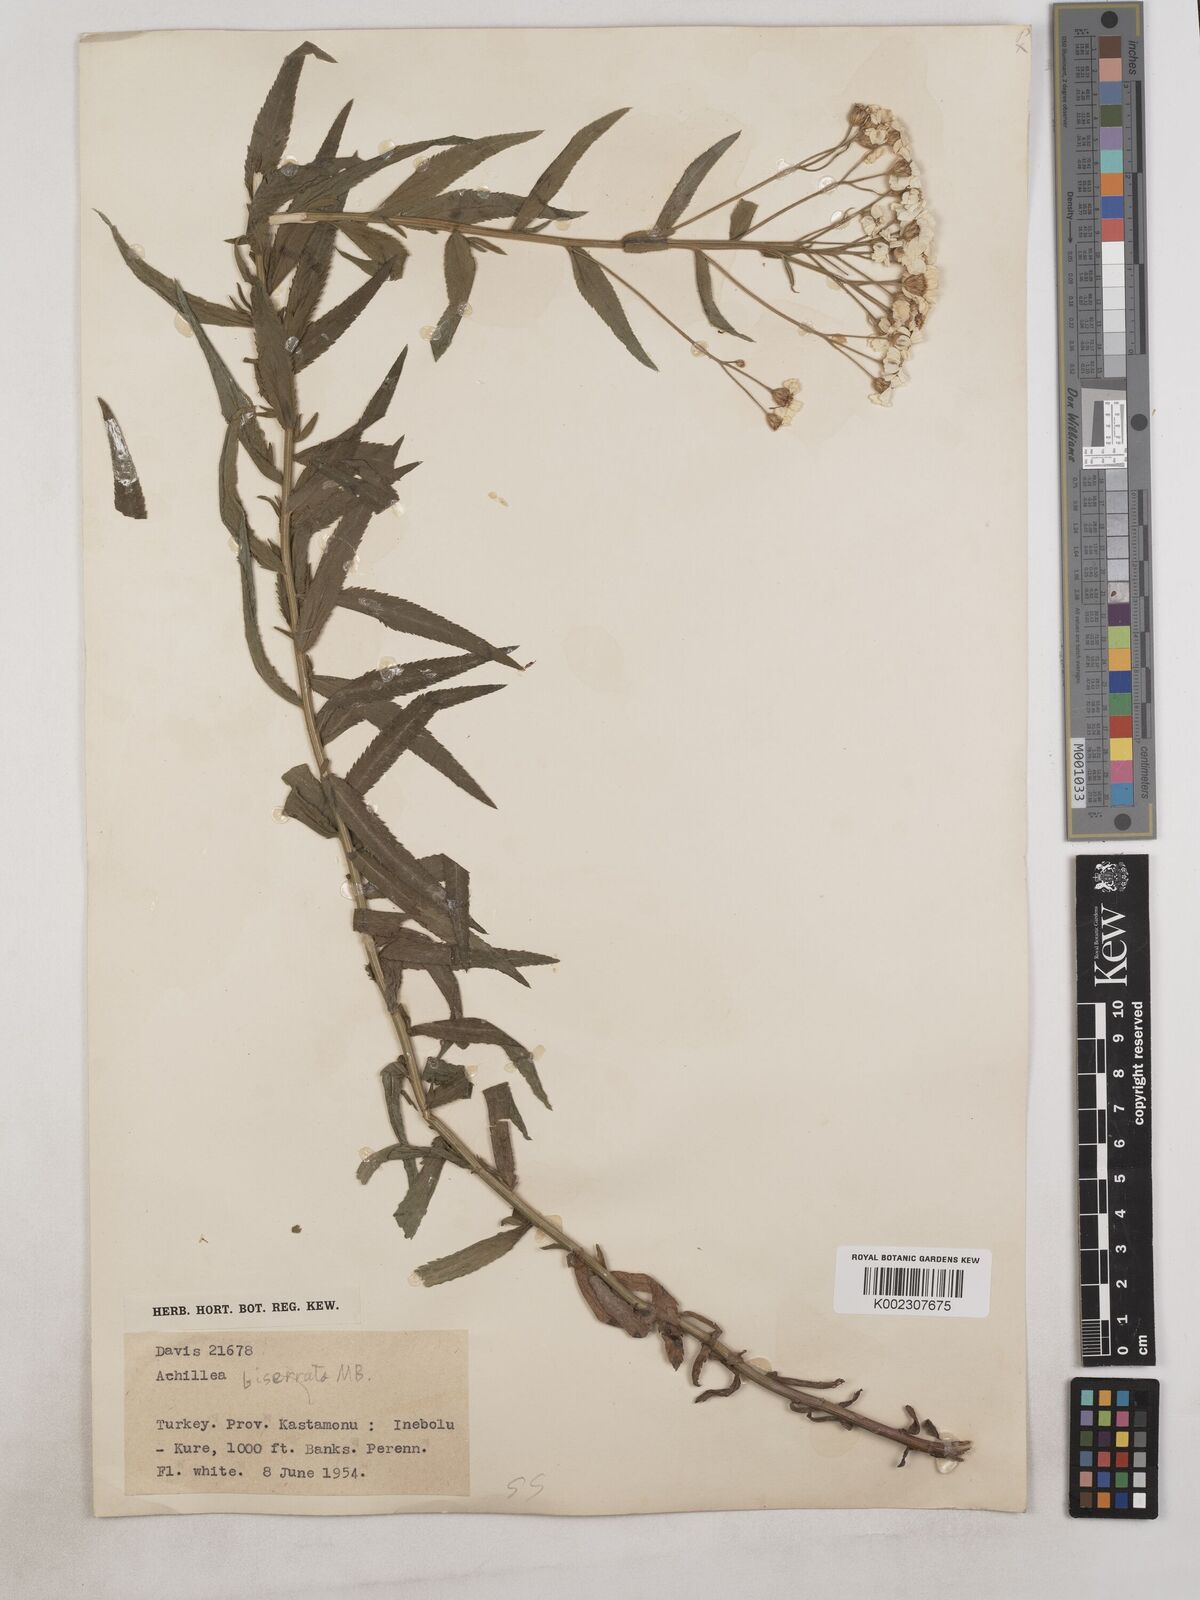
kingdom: Plantae
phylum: Tracheophyta
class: Magnoliopsida
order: Asterales
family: Asteraceae
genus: Achillea
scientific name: Achillea biserrata
